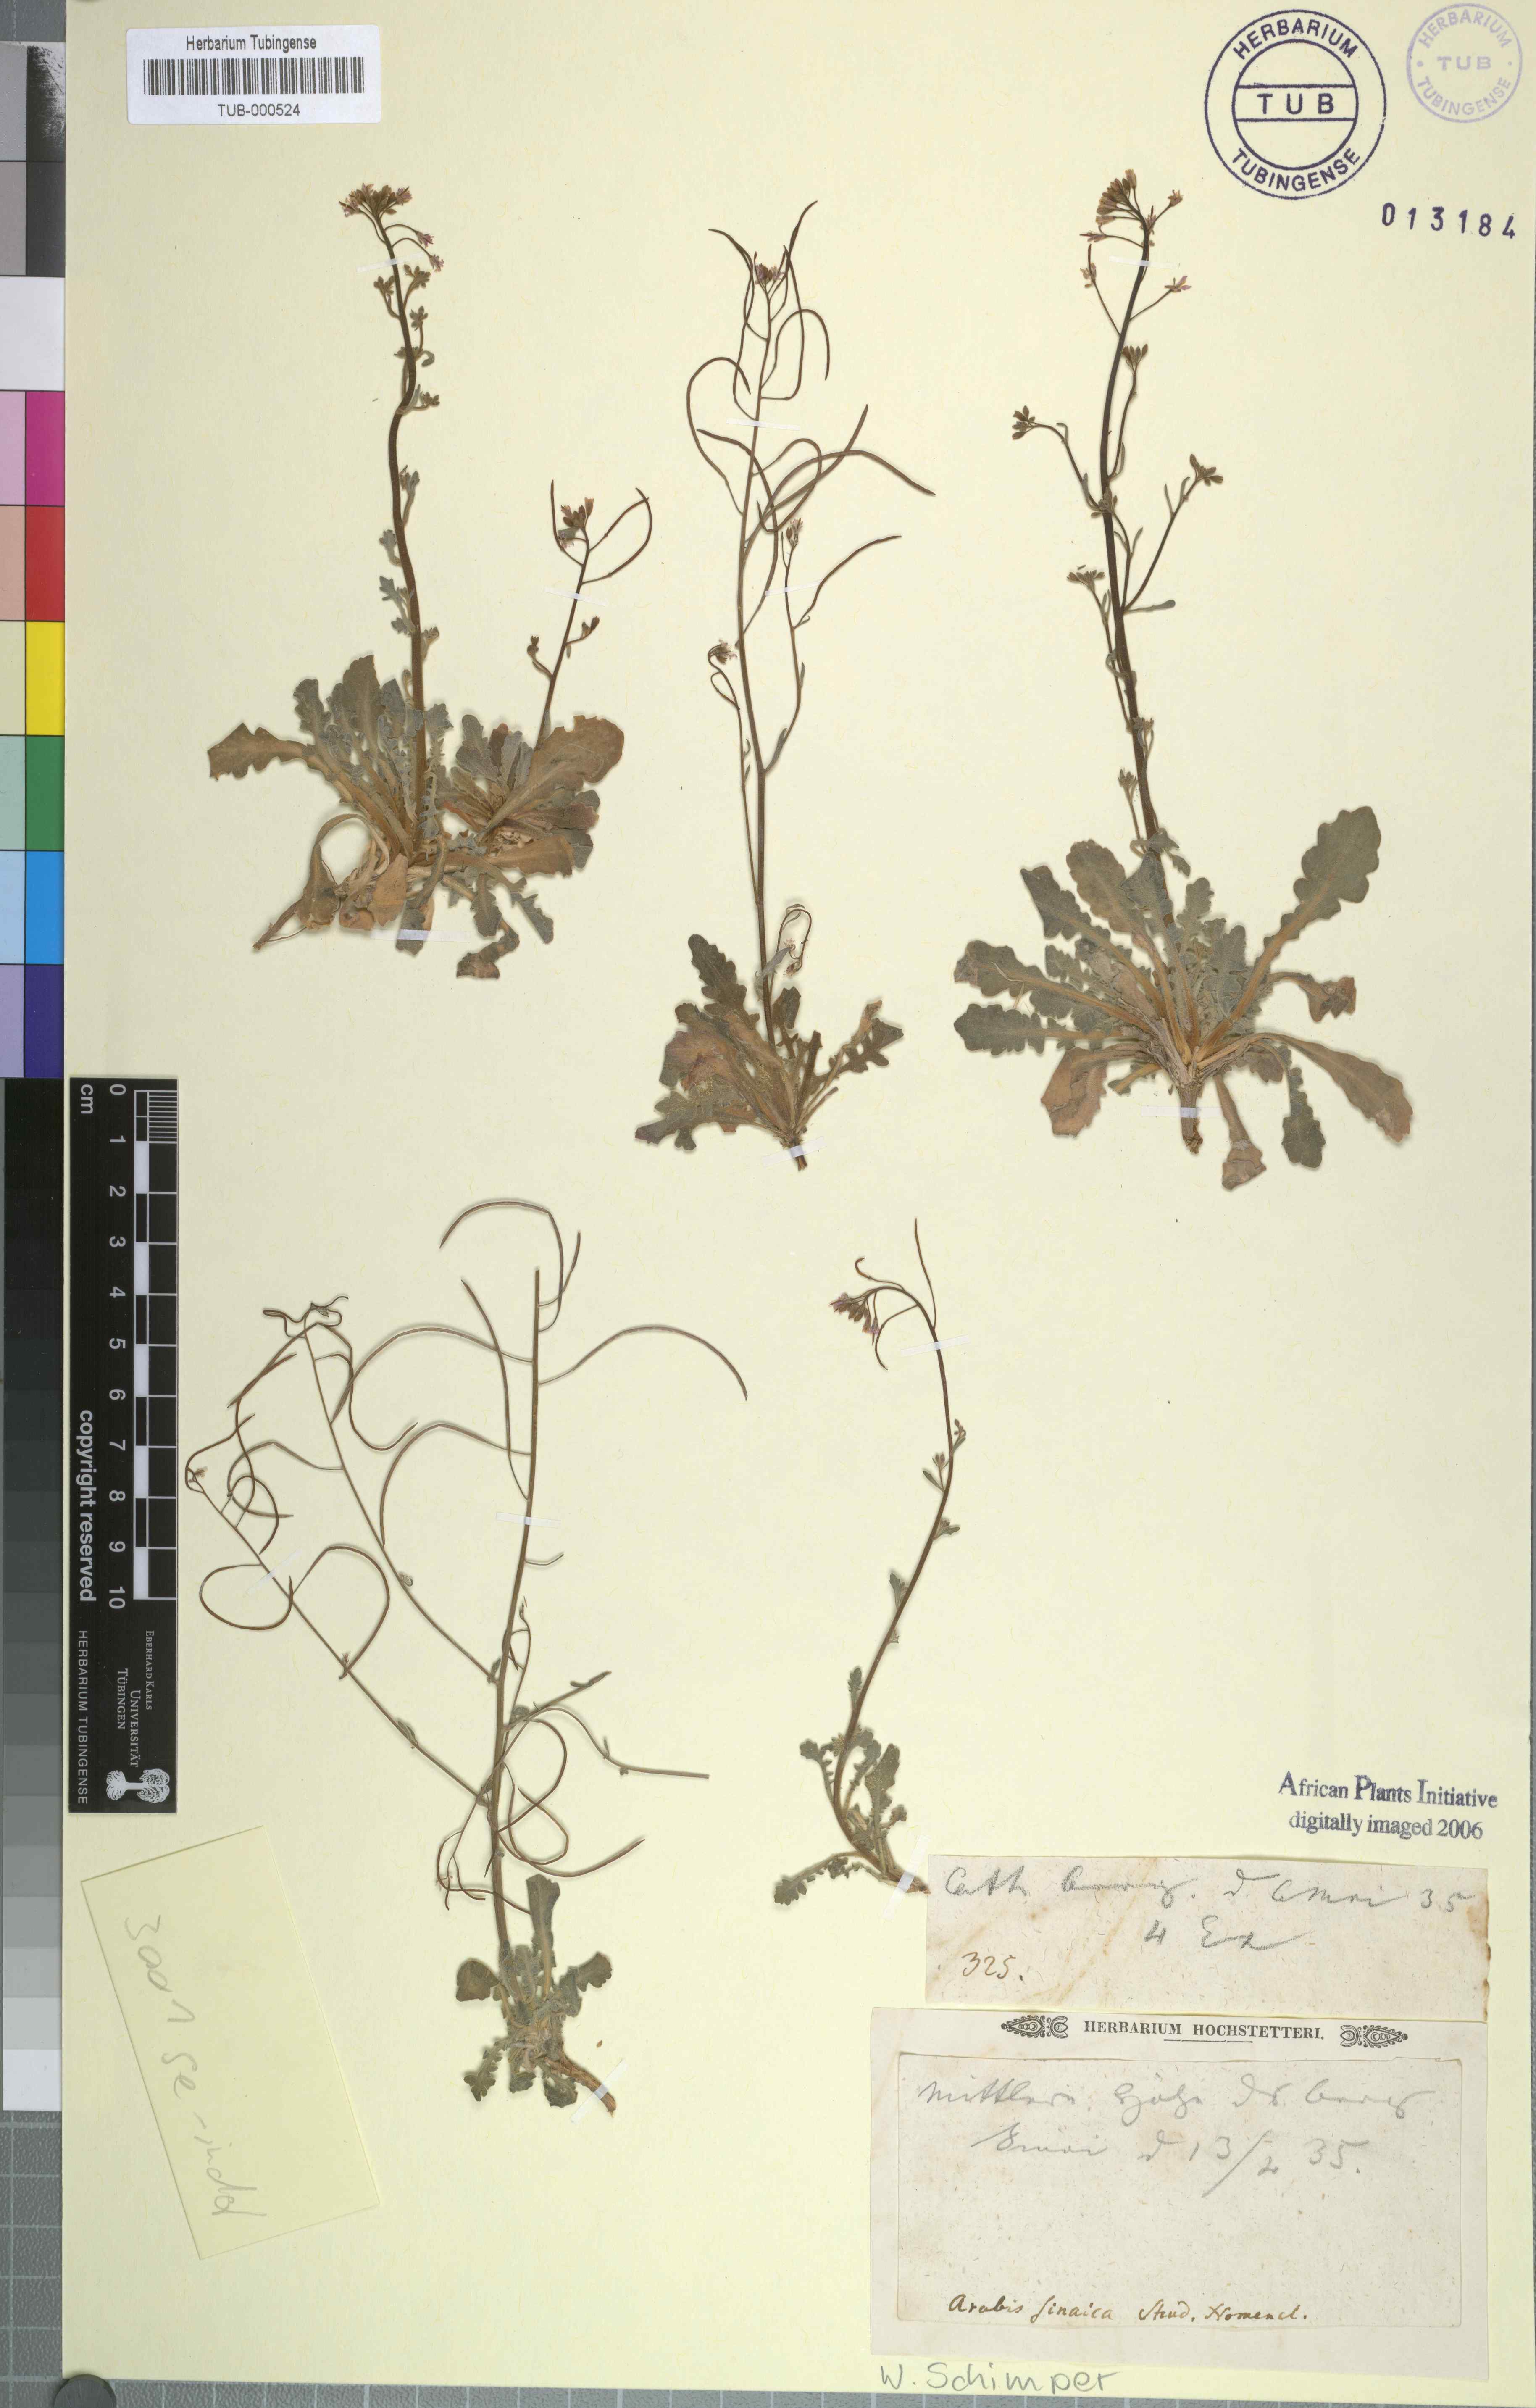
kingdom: Plantae
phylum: Tracheophyta
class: Magnoliopsida
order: Brassicales
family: Brassicaceae
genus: Arabis
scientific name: Arabis auriculata
